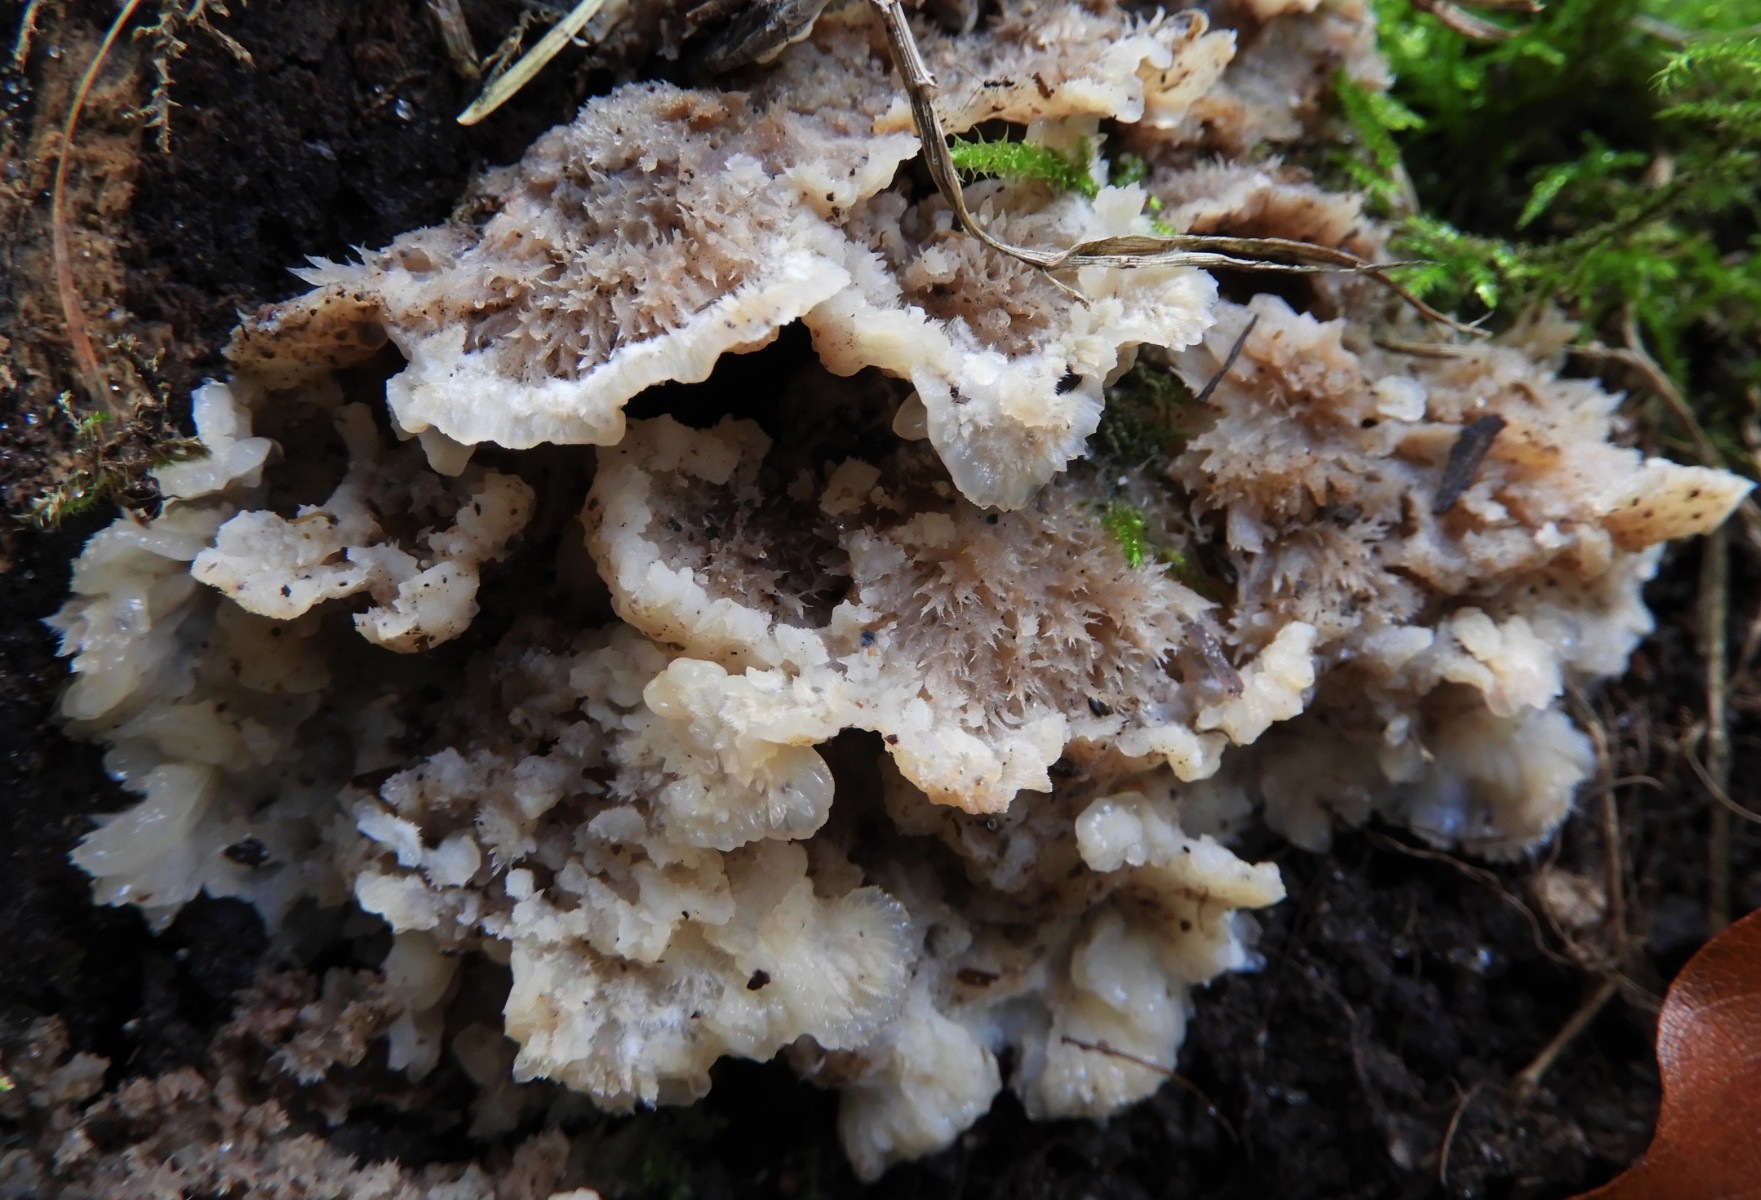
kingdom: Fungi
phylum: Basidiomycota
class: Agaricomycetes
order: Polyporales
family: Meruliaceae
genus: Phlebia
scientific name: Phlebia tremellosa
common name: bævrende åresvamp
